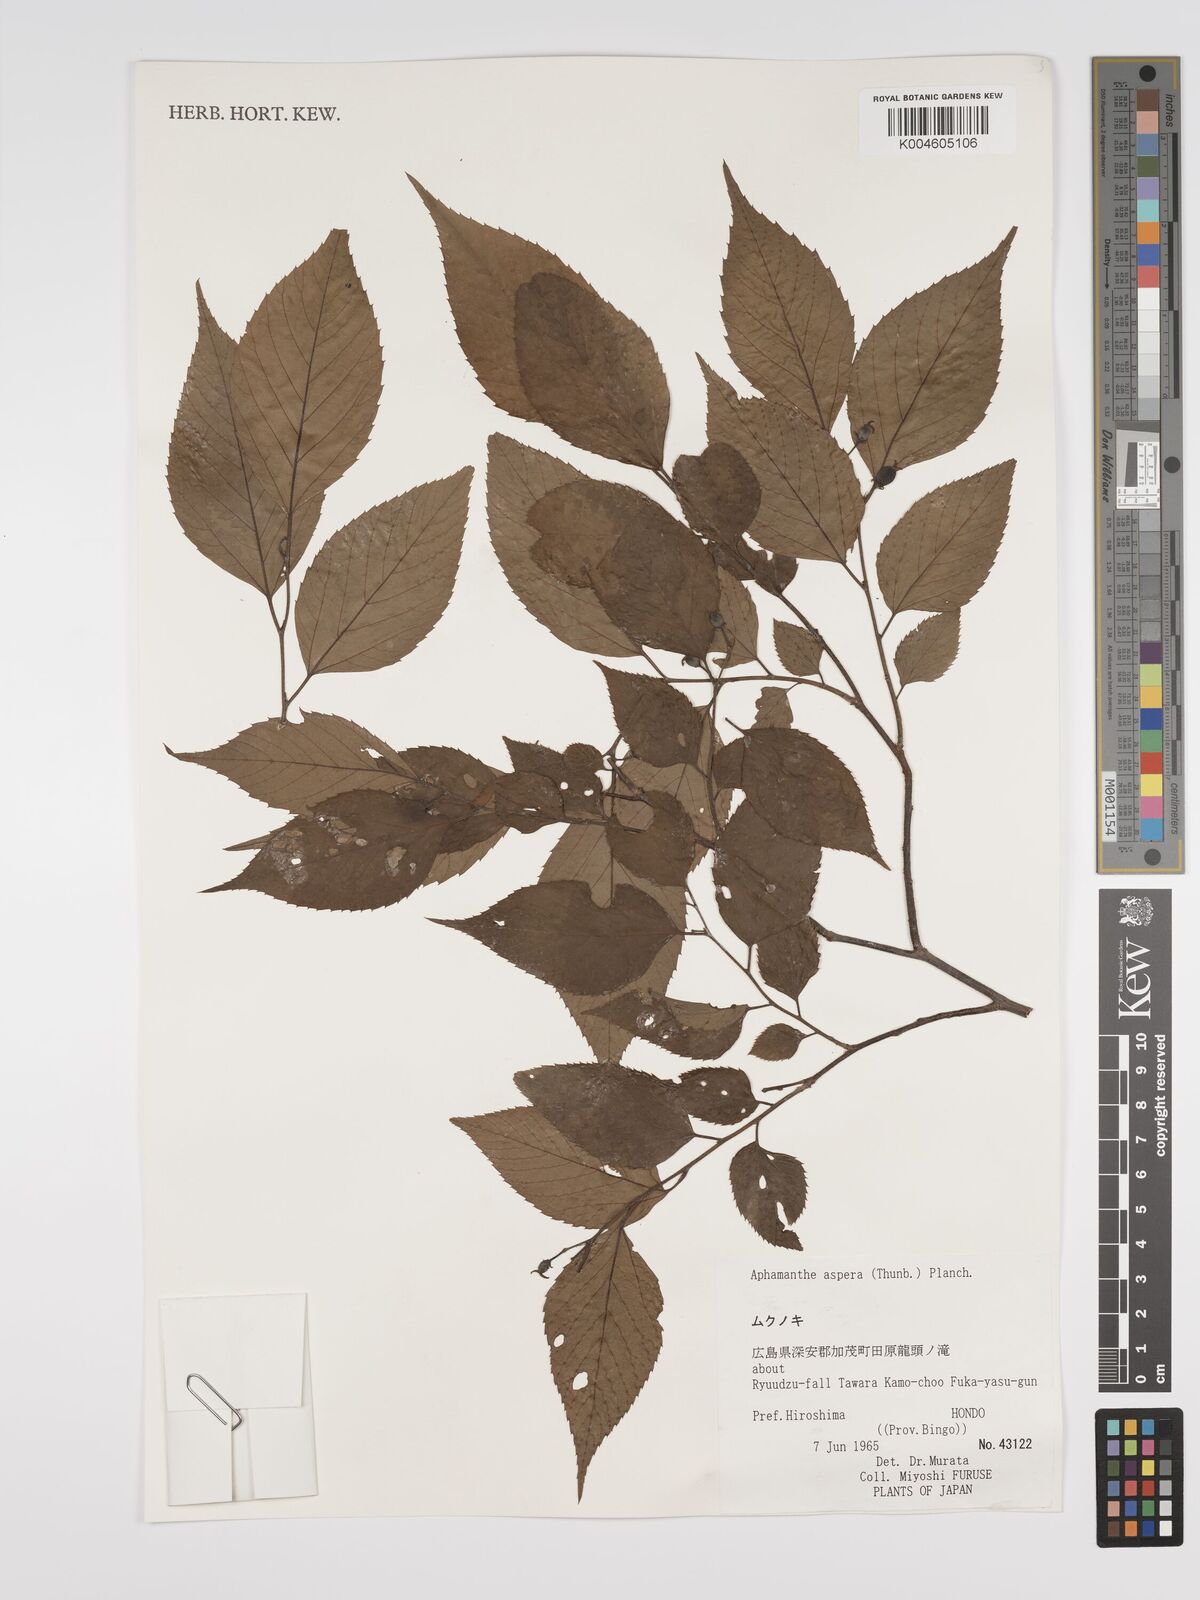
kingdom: Plantae
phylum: Tracheophyta
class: Magnoliopsida
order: Rosales
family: Cannabaceae
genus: Aphananthe
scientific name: Aphananthe aspera
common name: Mukutree
